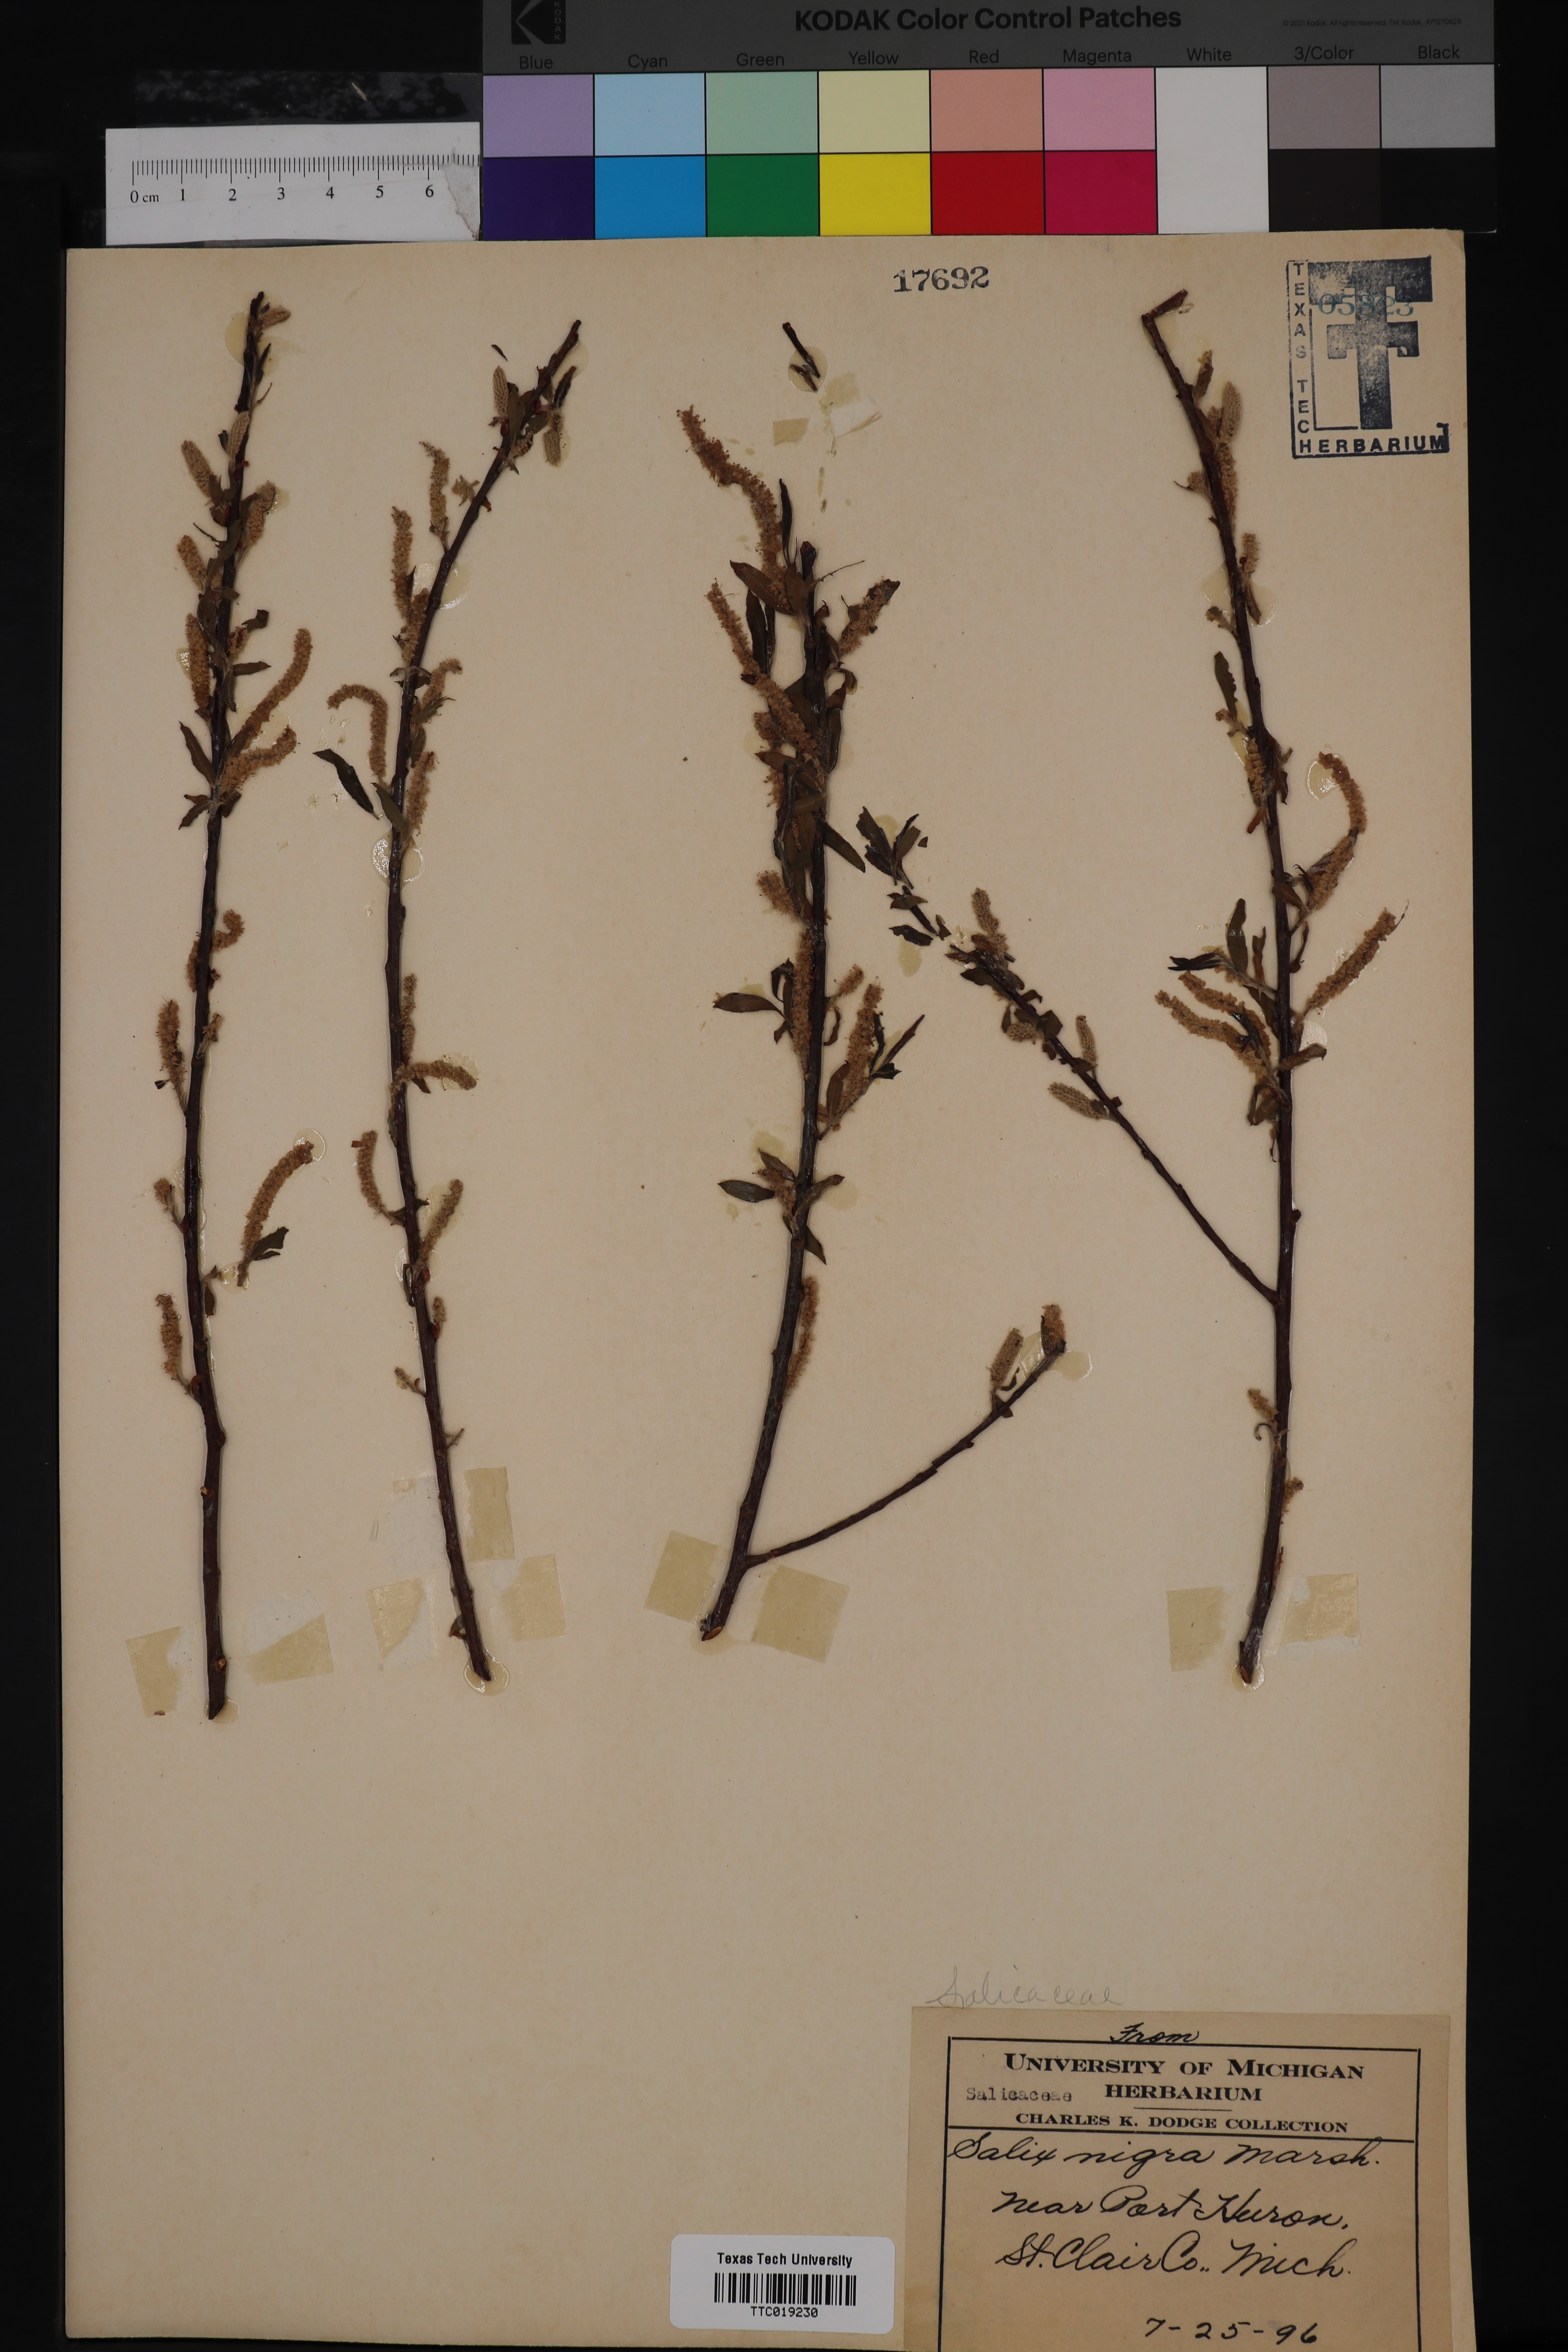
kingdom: Plantae
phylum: Tracheophyta
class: Magnoliopsida
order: Malpighiales
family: Salicaceae
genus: Salix
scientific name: Salix nigra
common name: Black willow
